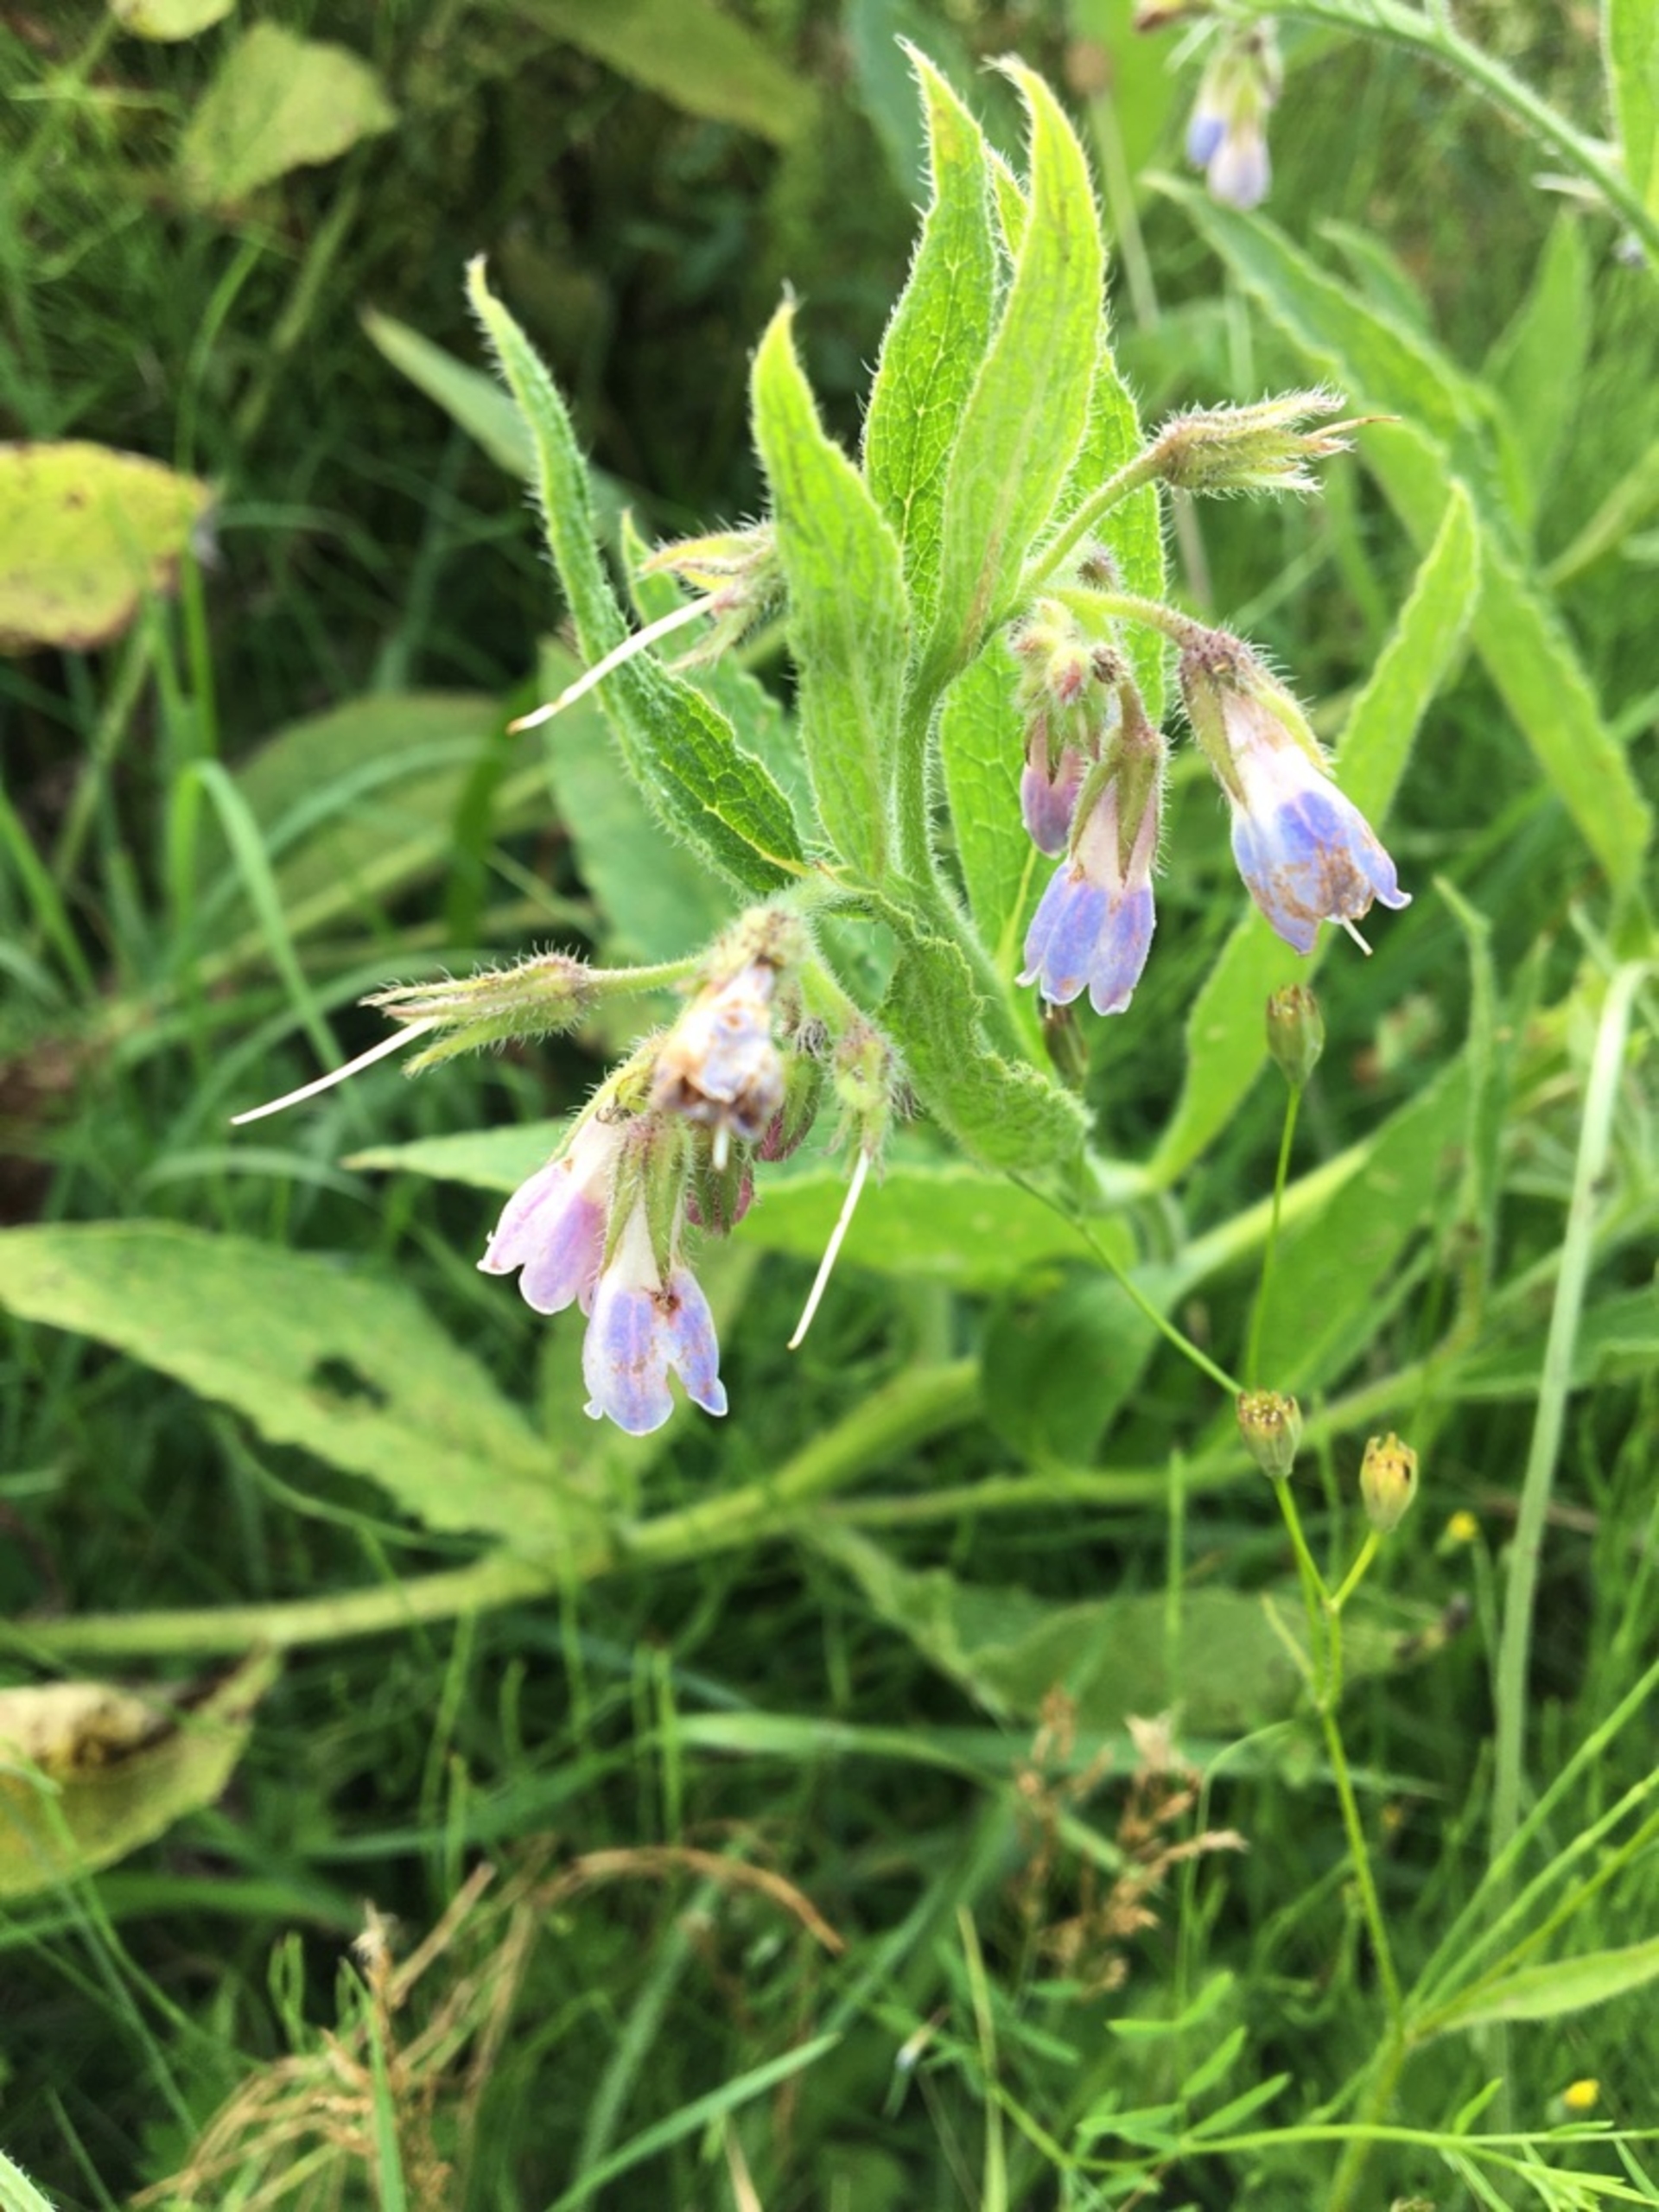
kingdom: Plantae
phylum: Tracheophyta
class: Magnoliopsida
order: Boraginales
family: Boraginaceae
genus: Symphytum
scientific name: Symphytum
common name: Kulsukkerslægten
